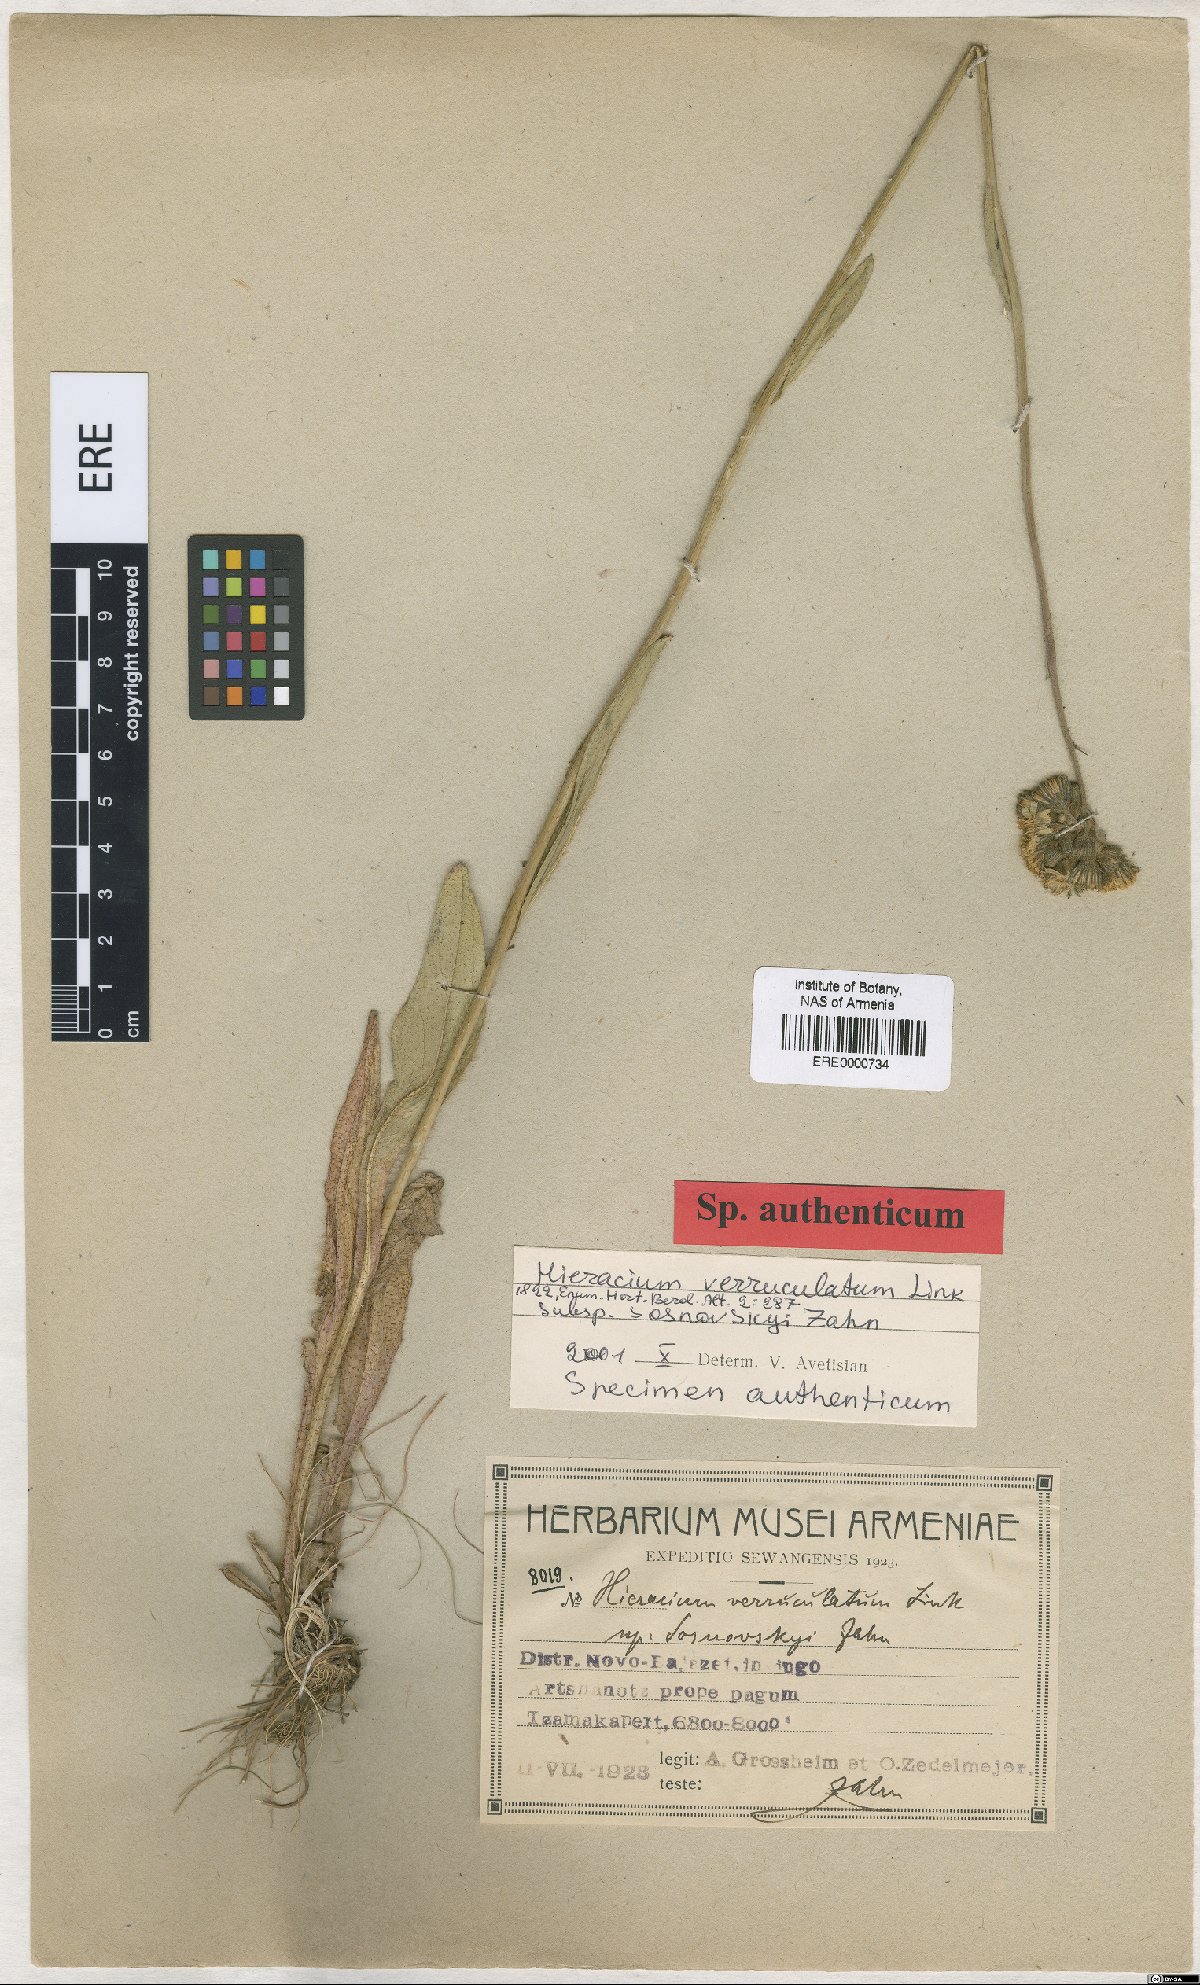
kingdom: Plantae
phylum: Tracheophyta
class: Magnoliopsida
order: Asterales
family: Asteraceae
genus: Pilosella
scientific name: Pilosella verruculata
